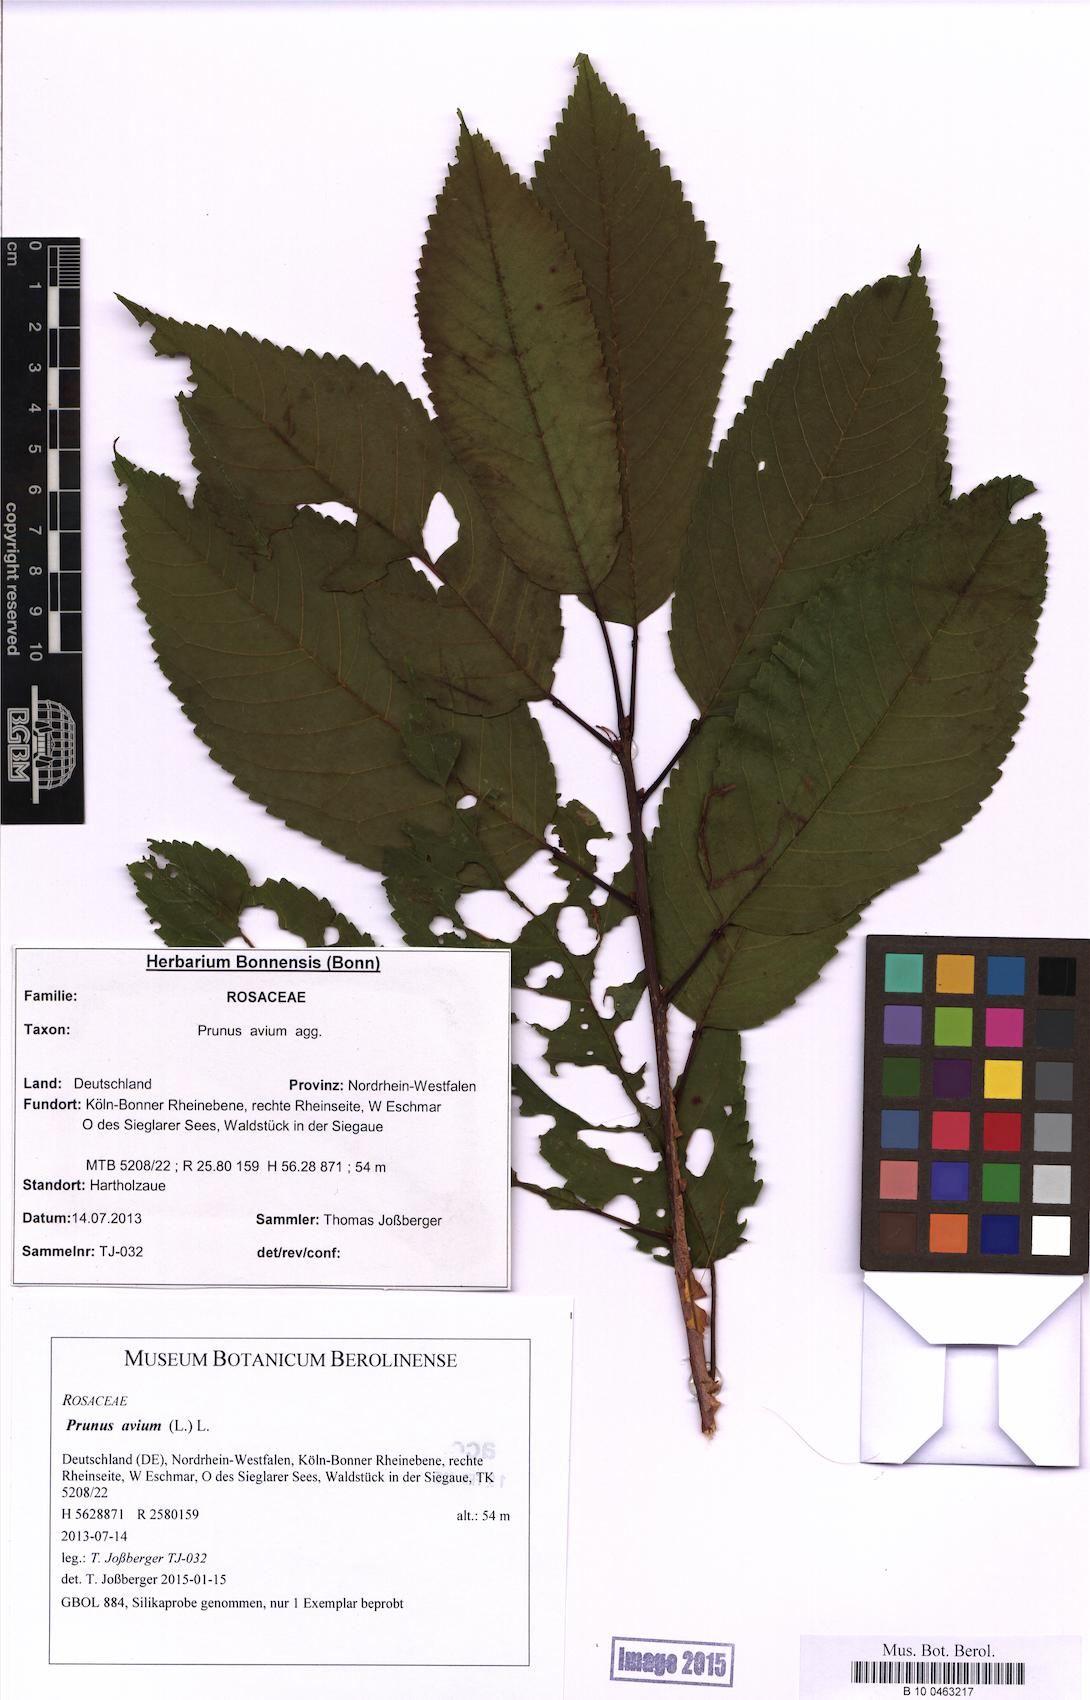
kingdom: Plantae
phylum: Tracheophyta
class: Magnoliopsida
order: Rosales
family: Rosaceae
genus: Prunus
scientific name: Prunus avium
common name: Sweet cherry
